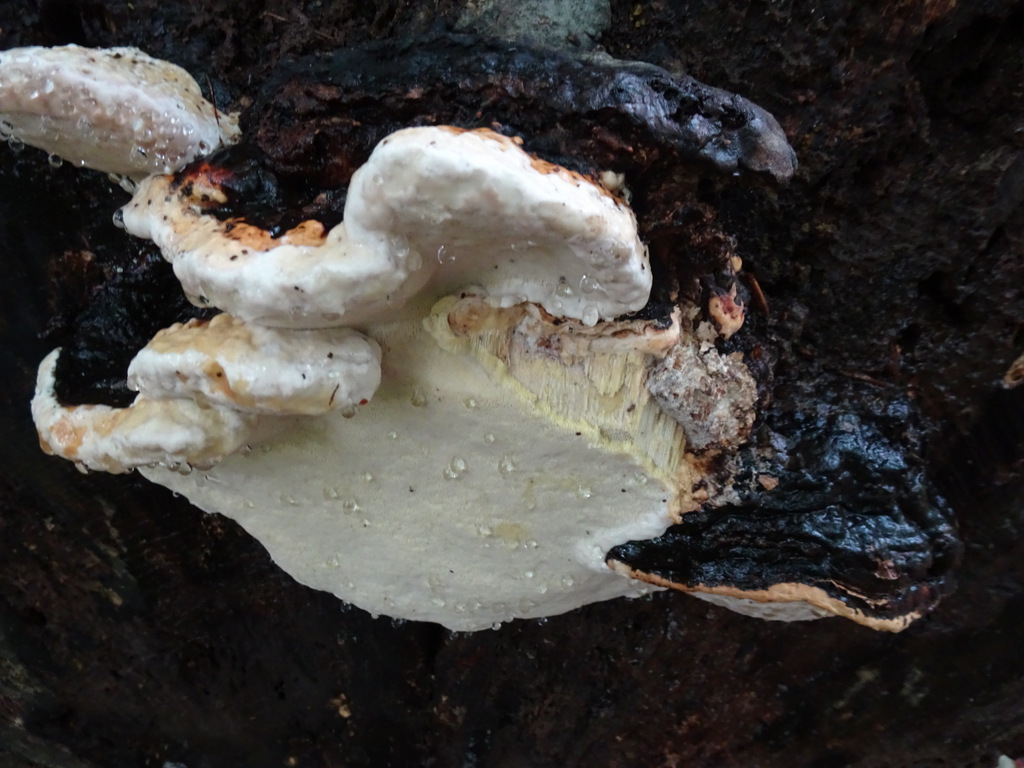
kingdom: Fungi
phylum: Basidiomycota
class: Agaricomycetes
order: Polyporales
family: Fomitopsidaceae
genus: Fomitopsis
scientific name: Fomitopsis pinicola
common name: randbæltet hovporesvamp
